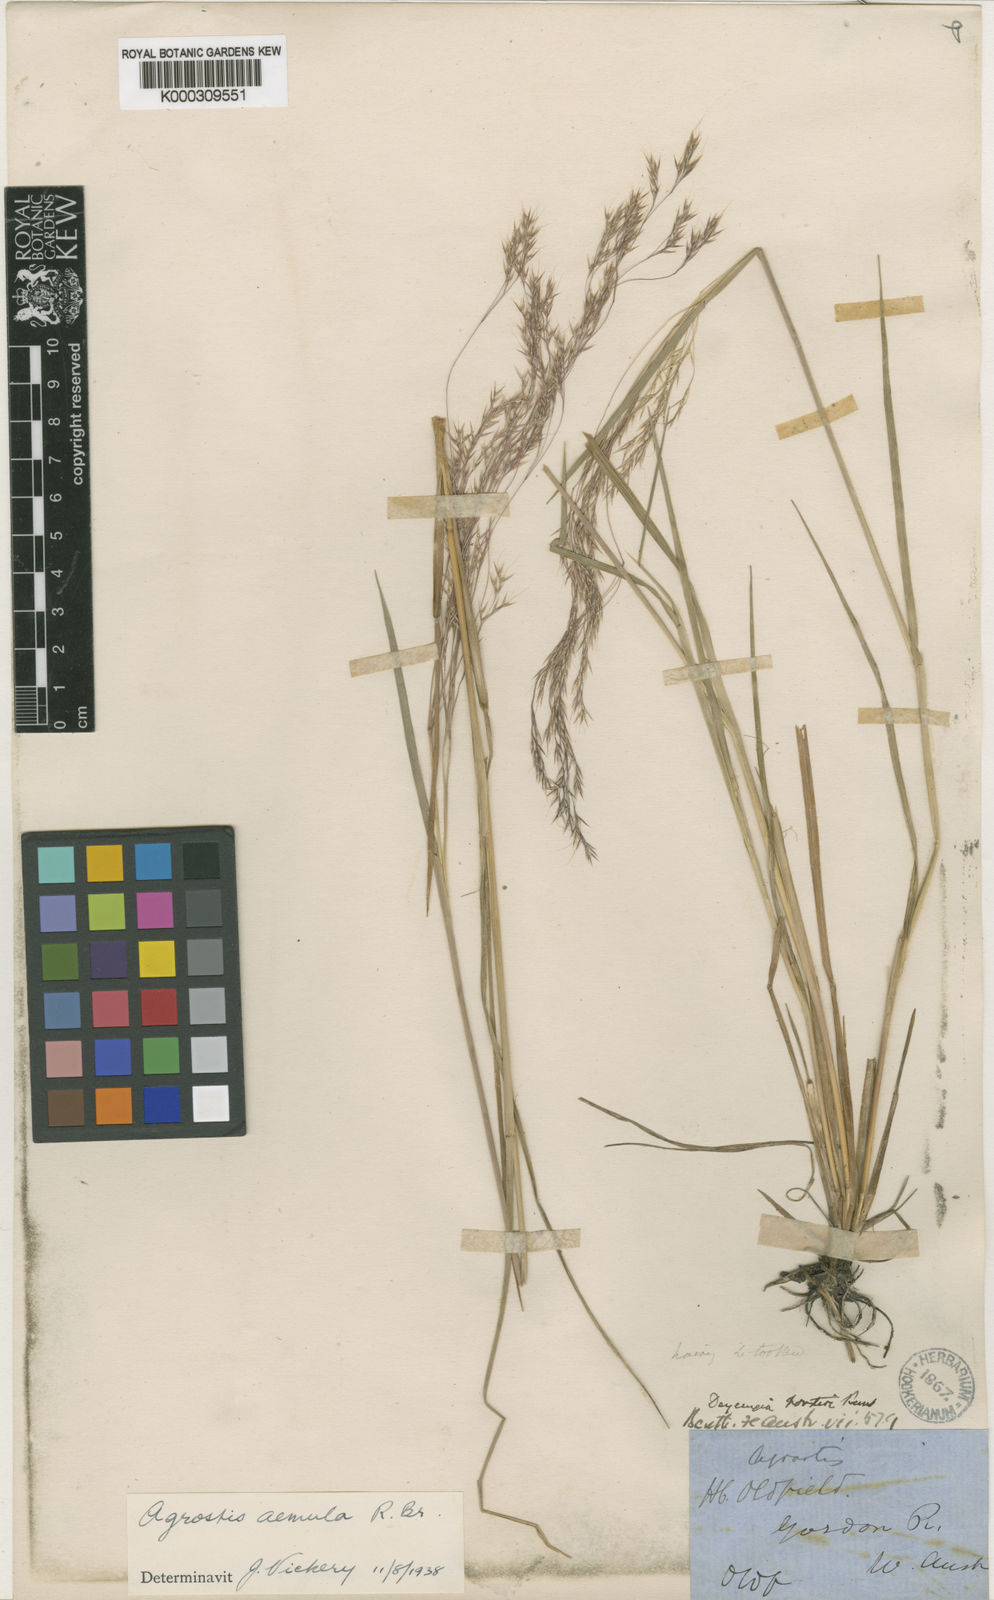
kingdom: Plantae
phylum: Tracheophyta
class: Liliopsida
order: Poales
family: Poaceae
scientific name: Poaceae
